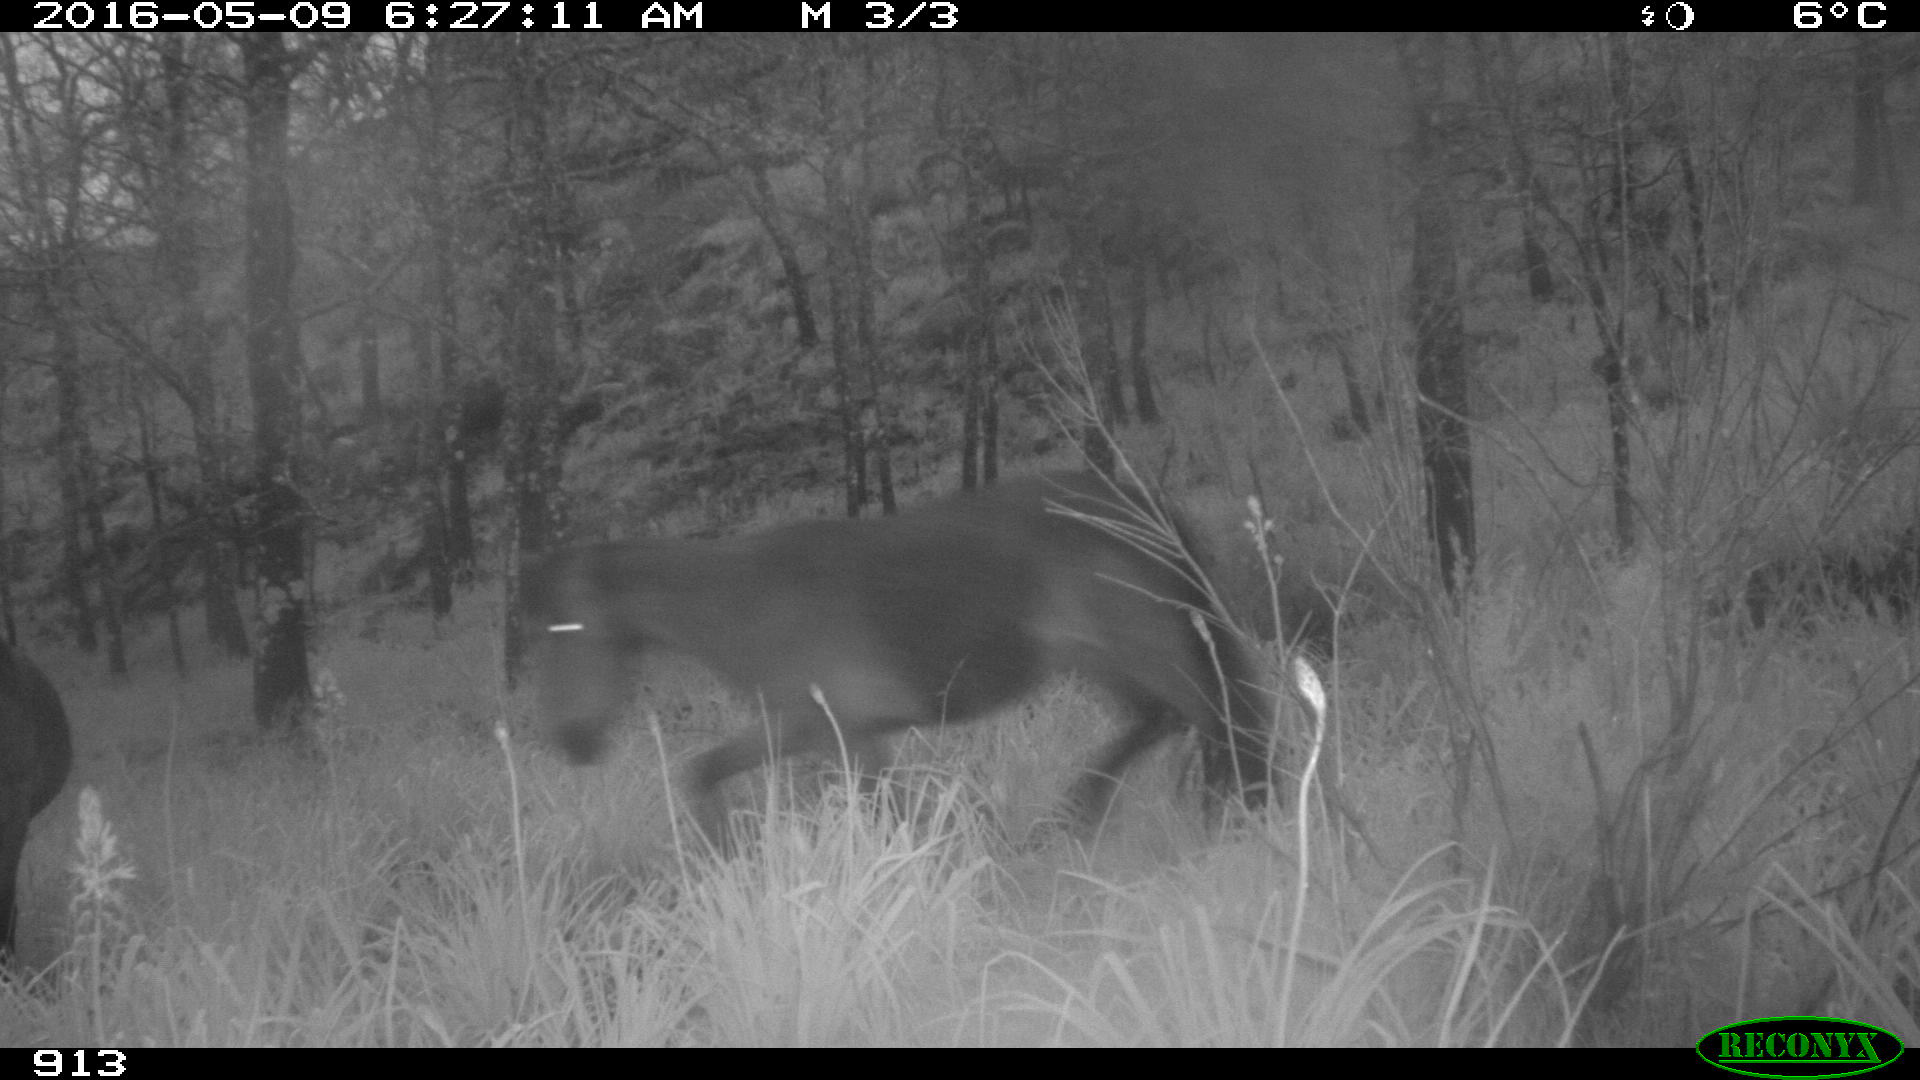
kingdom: Animalia
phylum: Chordata
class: Mammalia
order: Perissodactyla
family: Equidae
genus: Equus
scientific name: Equus caballus
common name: Horse
